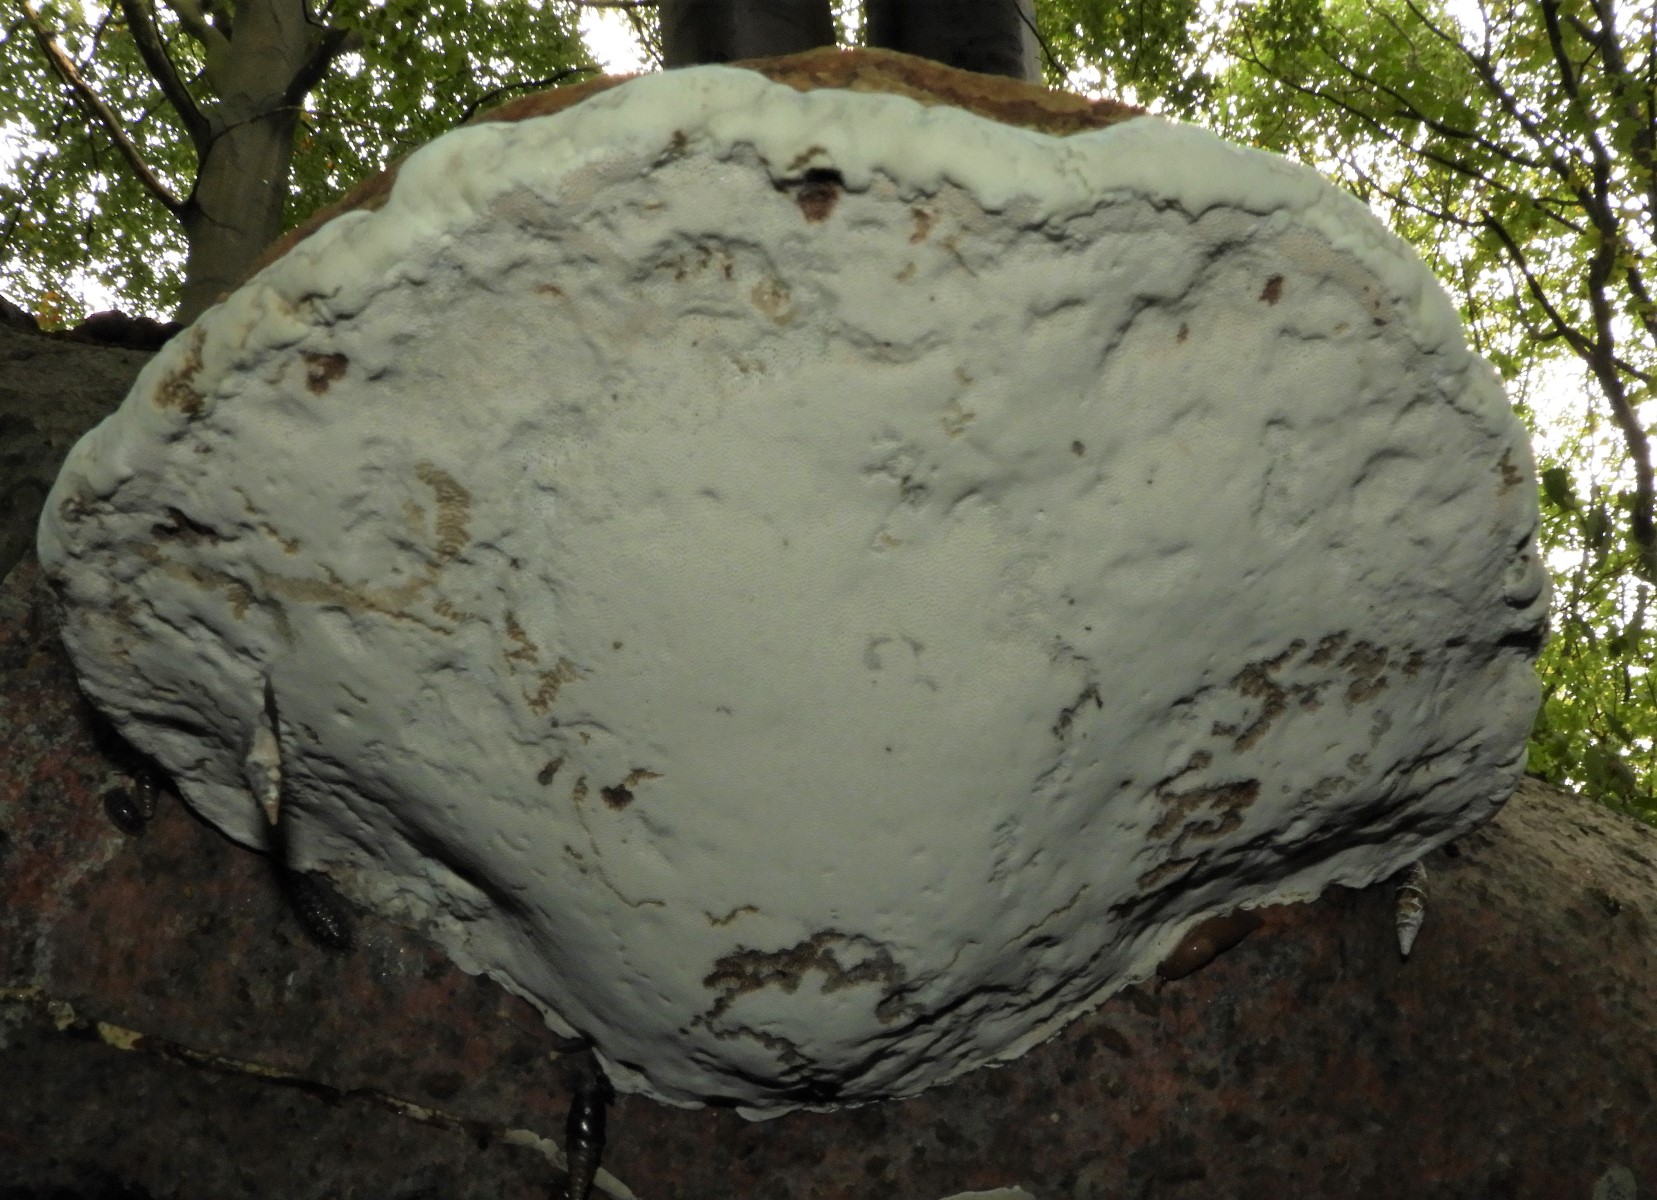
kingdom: Fungi
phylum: Basidiomycota
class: Agaricomycetes
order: Polyporales
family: Polyporaceae
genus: Fomes
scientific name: Fomes fomentarius
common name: tøndersvamp
